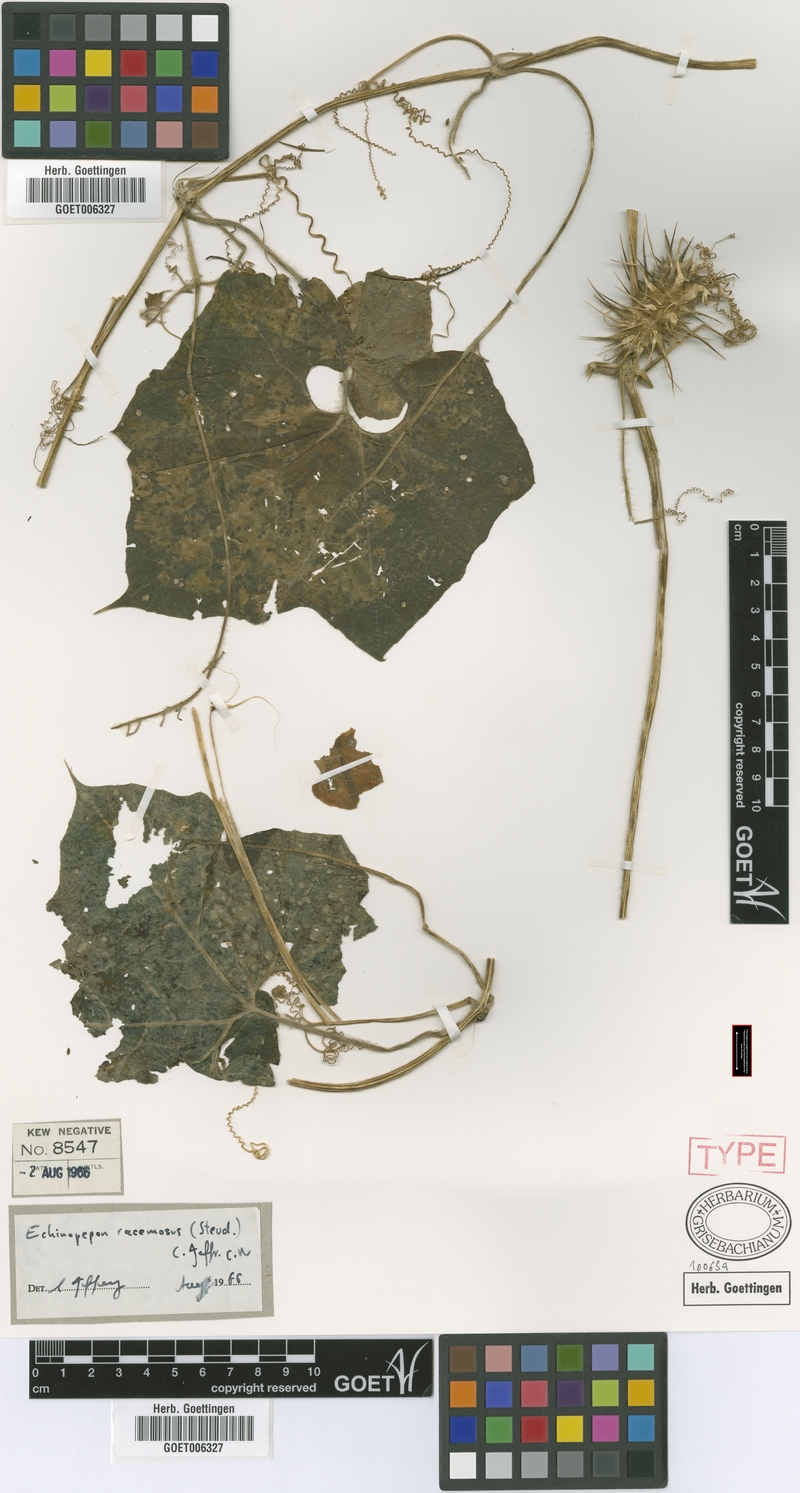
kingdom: Plantae
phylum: Tracheophyta
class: Magnoliopsida
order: Cucurbitales
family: Cucurbitaceae
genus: Echinopepon
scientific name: Echinopepon racemosus
